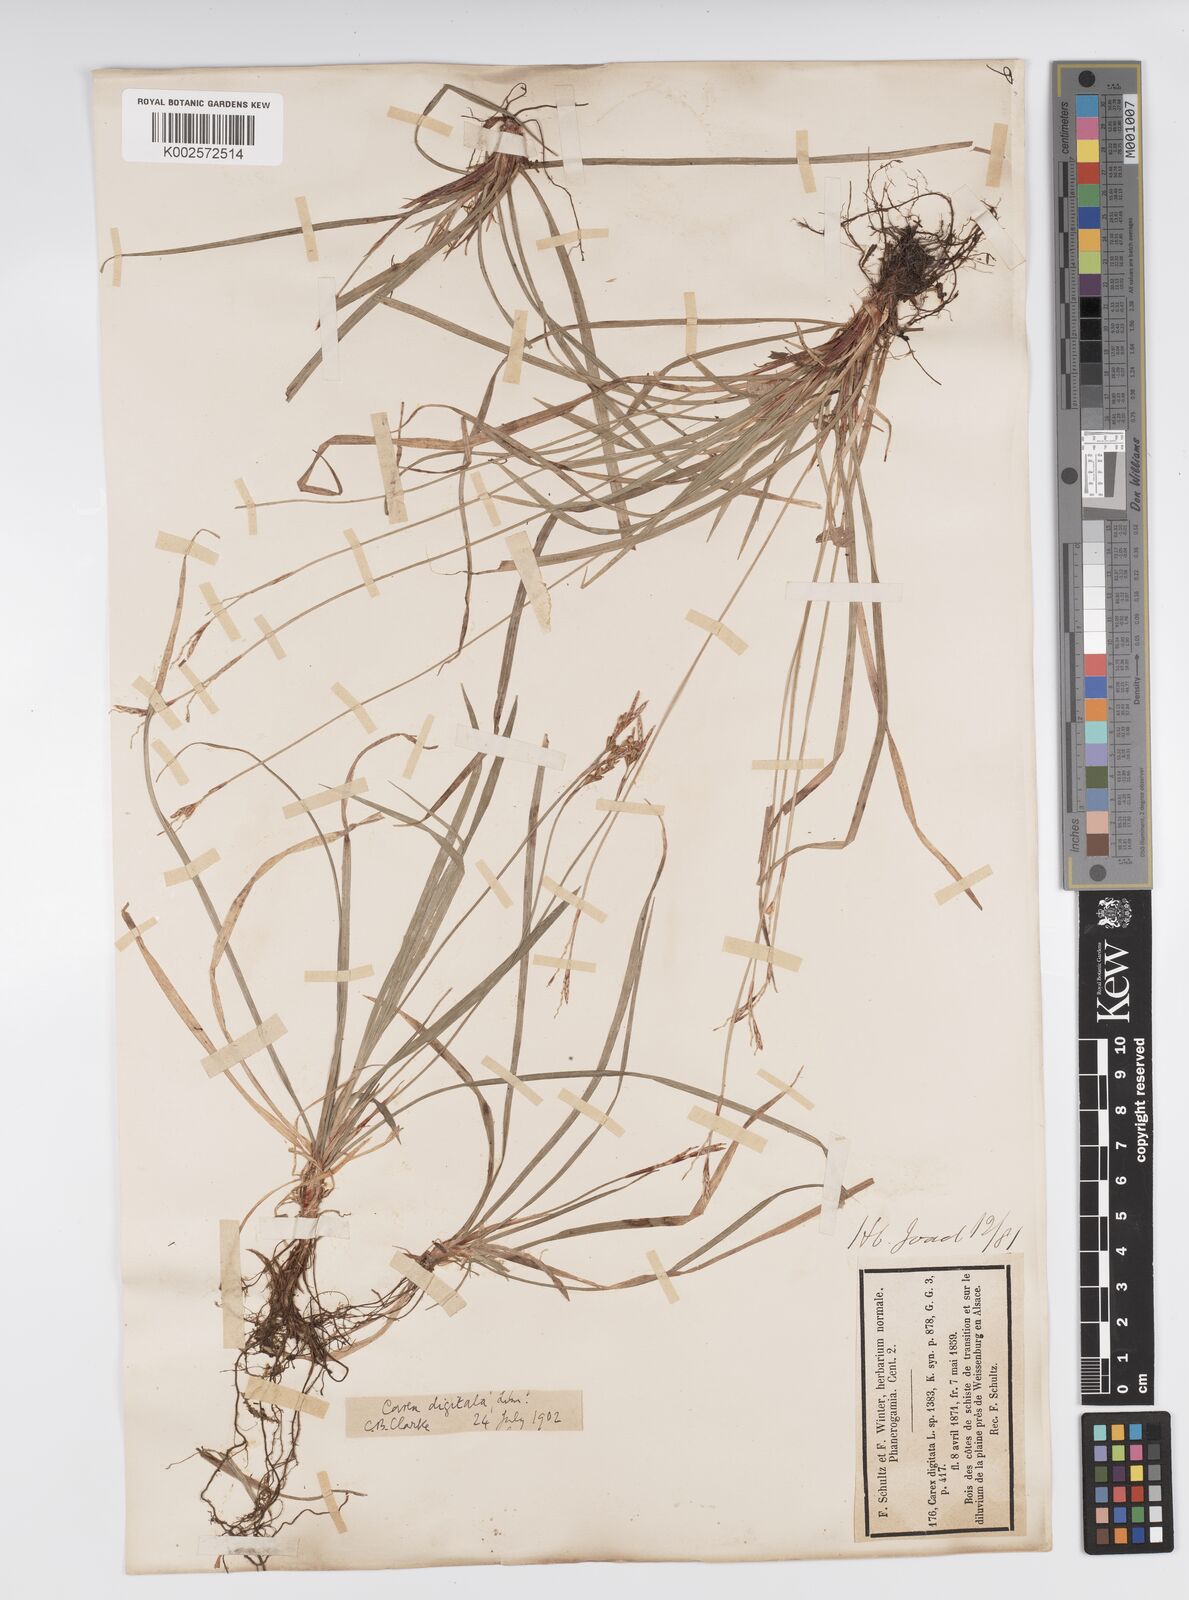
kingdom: Plantae
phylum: Tracheophyta
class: Liliopsida
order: Poales
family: Cyperaceae
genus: Carex
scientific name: Carex digitata
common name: Fingered sedge
